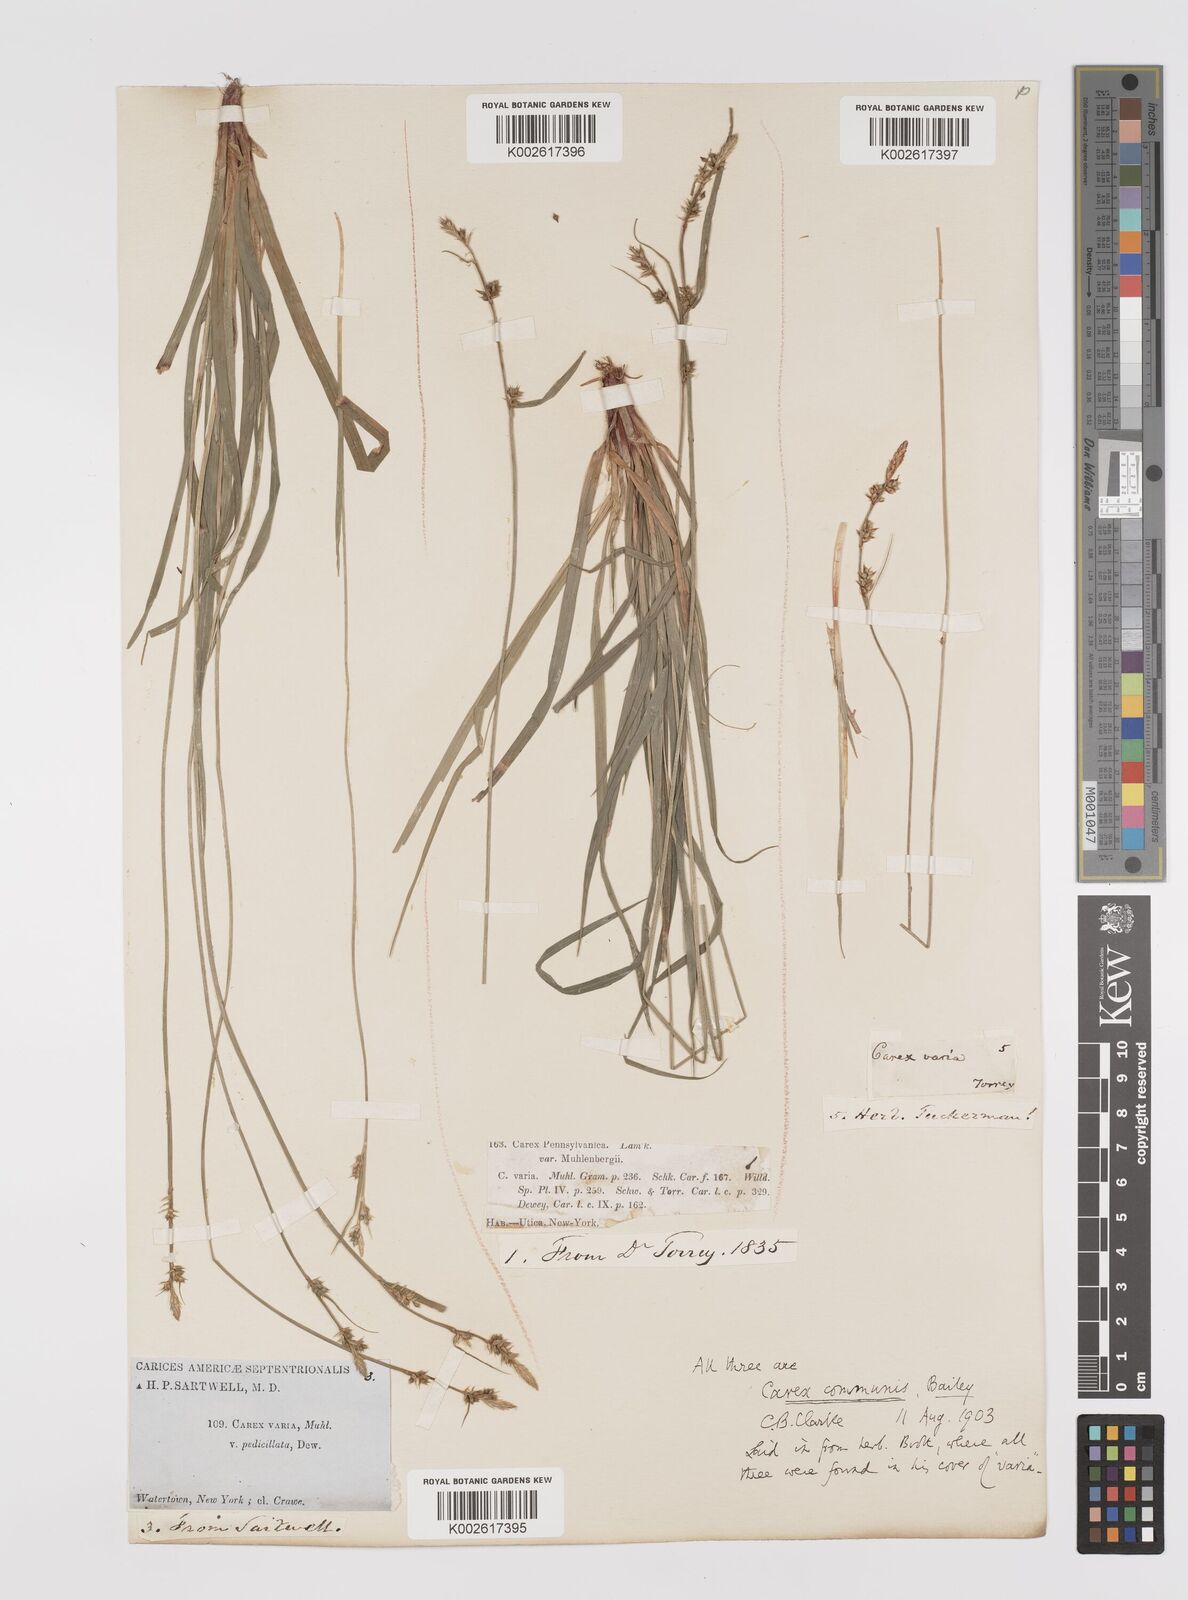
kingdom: Plantae
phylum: Tracheophyta
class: Liliopsida
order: Poales
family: Cyperaceae
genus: Carex
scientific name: Carex communis
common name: Colonial oak sedge
